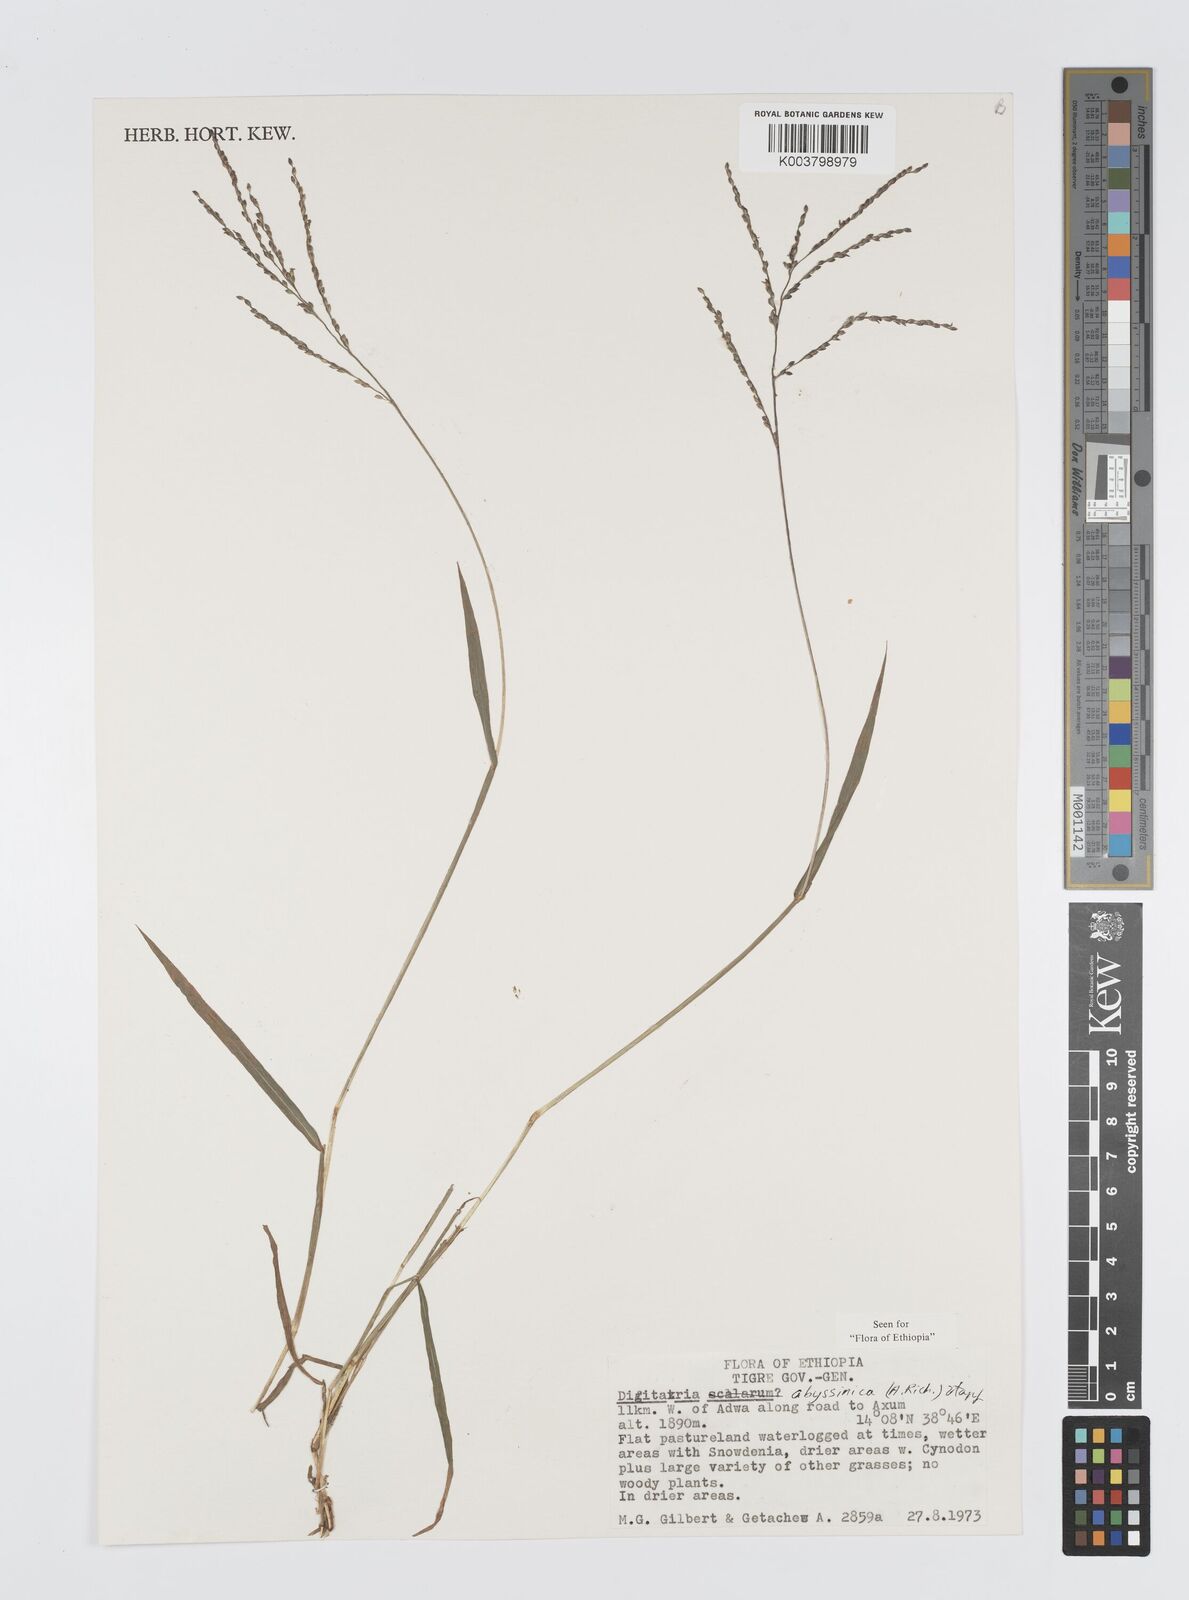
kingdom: Plantae
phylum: Tracheophyta
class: Liliopsida
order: Poales
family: Poaceae
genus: Digitaria
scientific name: Digitaria abyssinica
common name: African couchgrass
